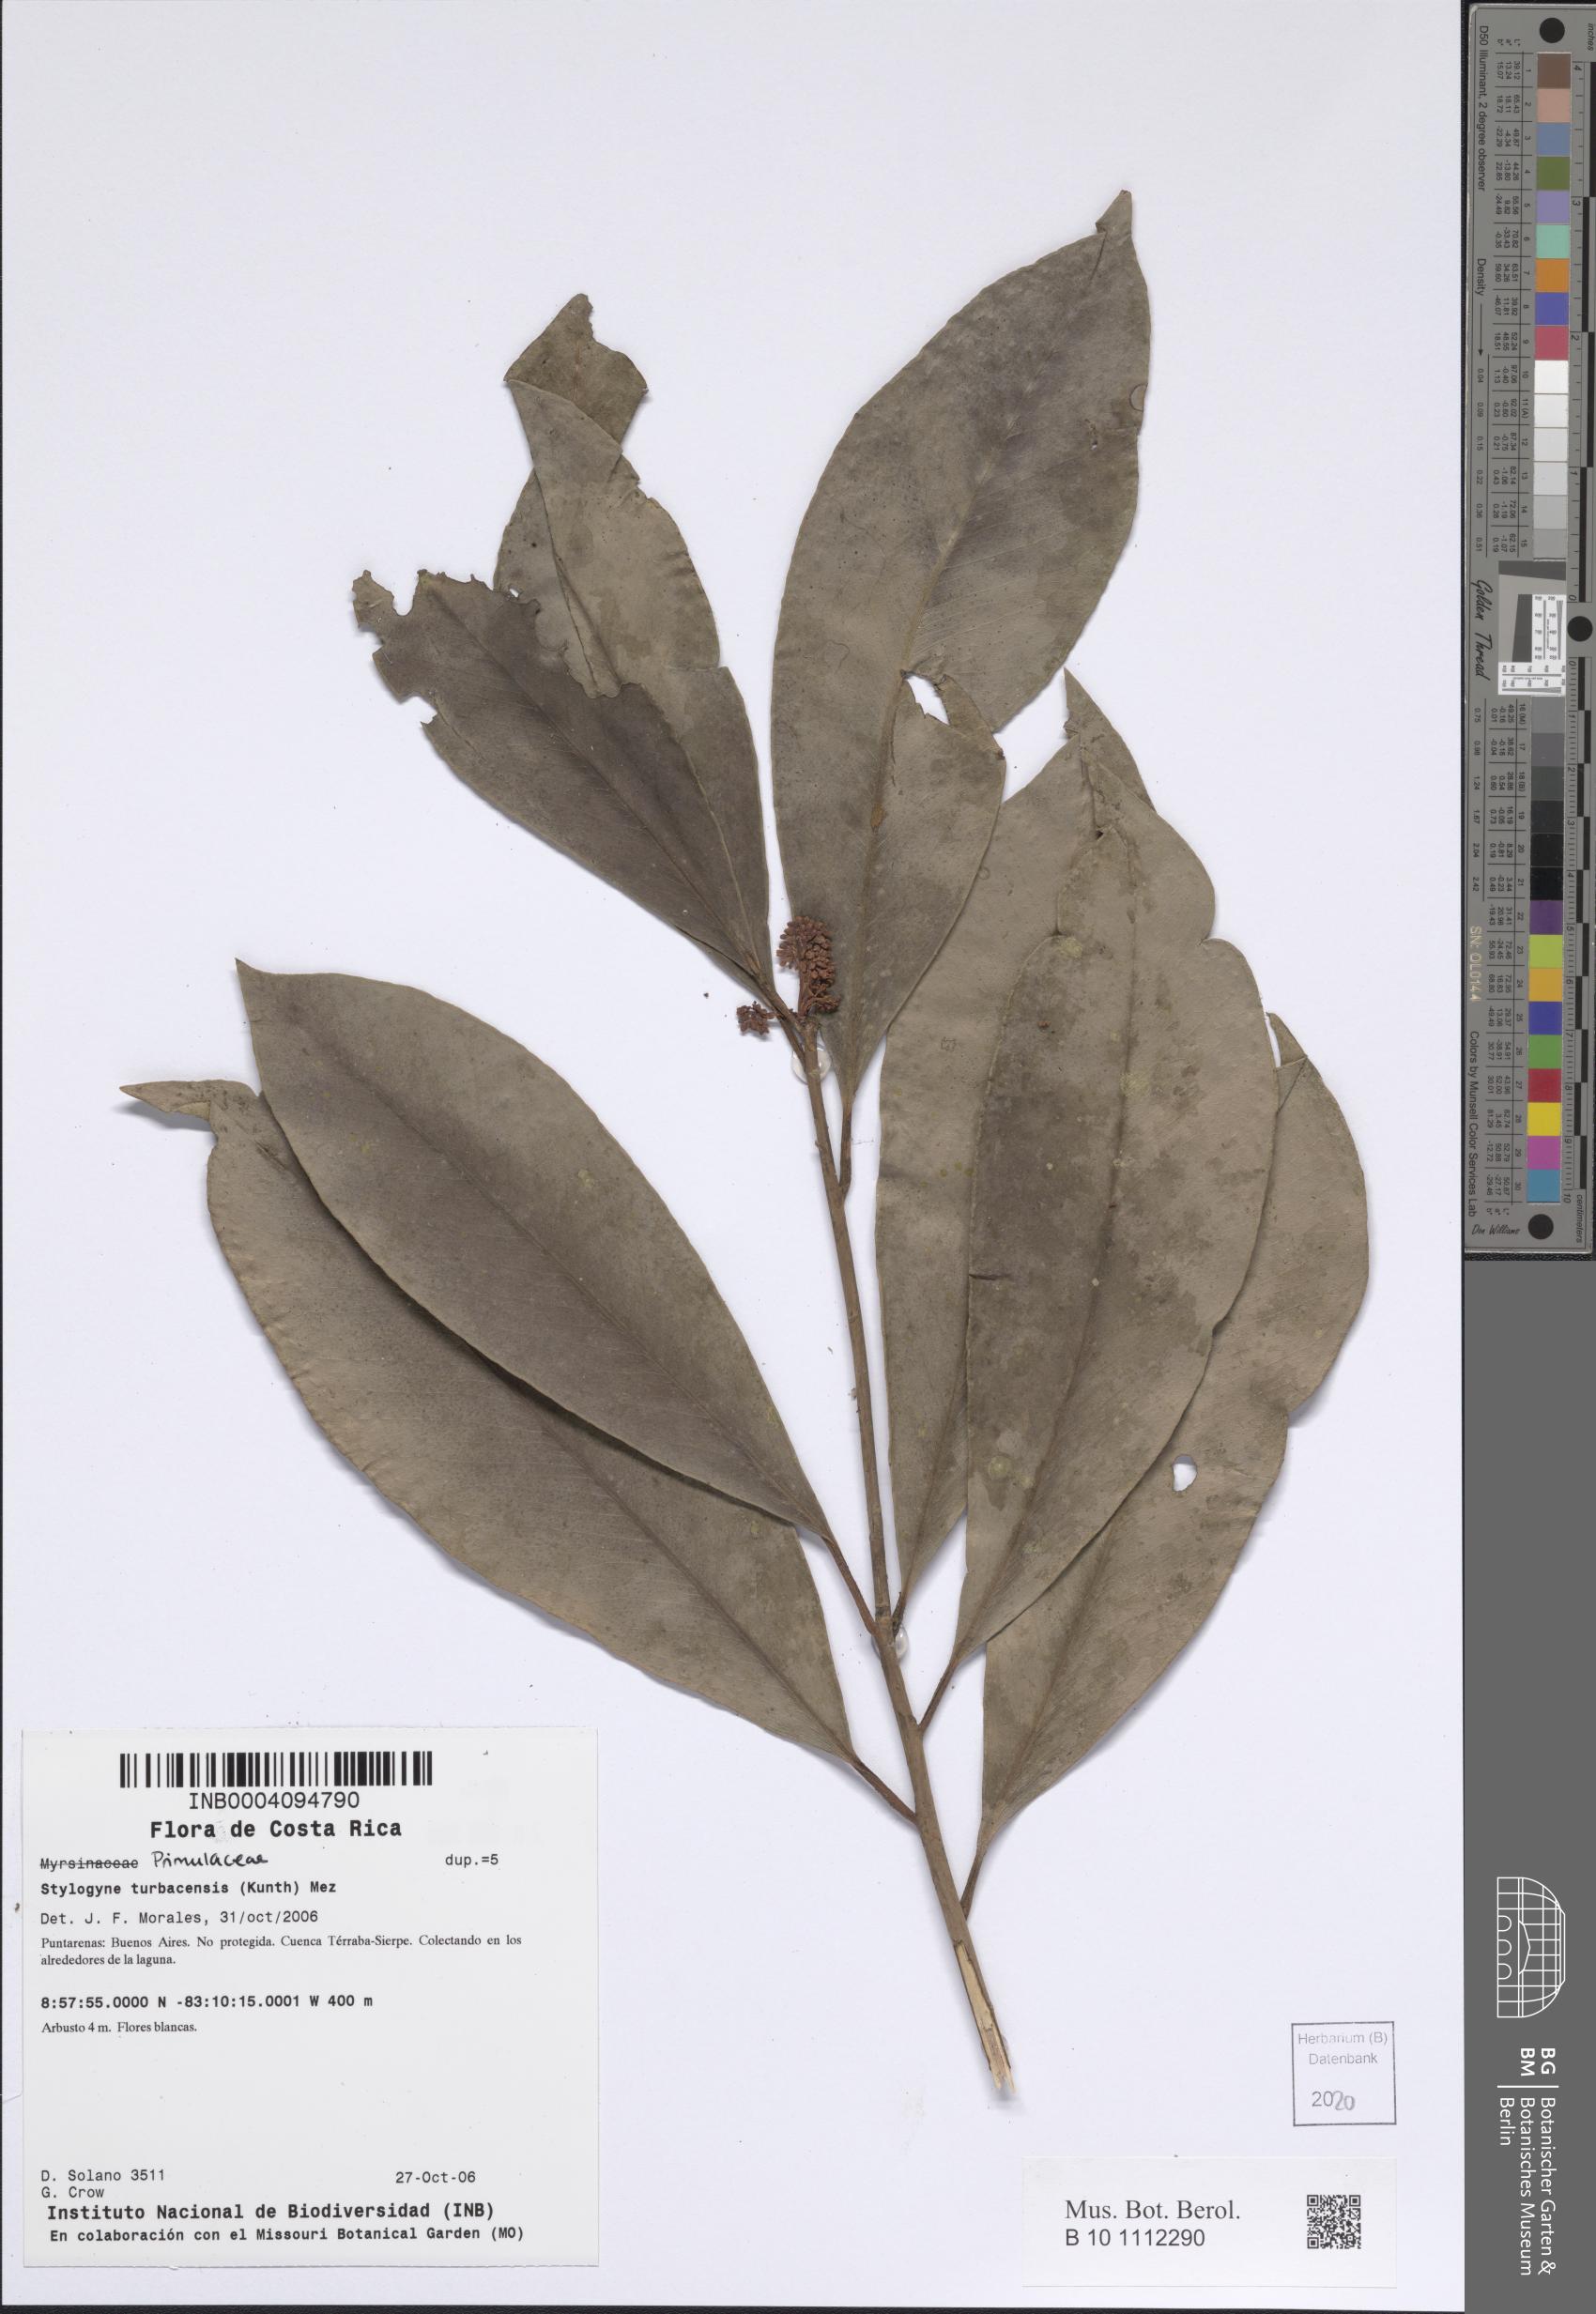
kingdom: Plantae
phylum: Tracheophyta
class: Magnoliopsida
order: Ericales
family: Primulaceae
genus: Stylogyne
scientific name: Stylogyne turbacensis
